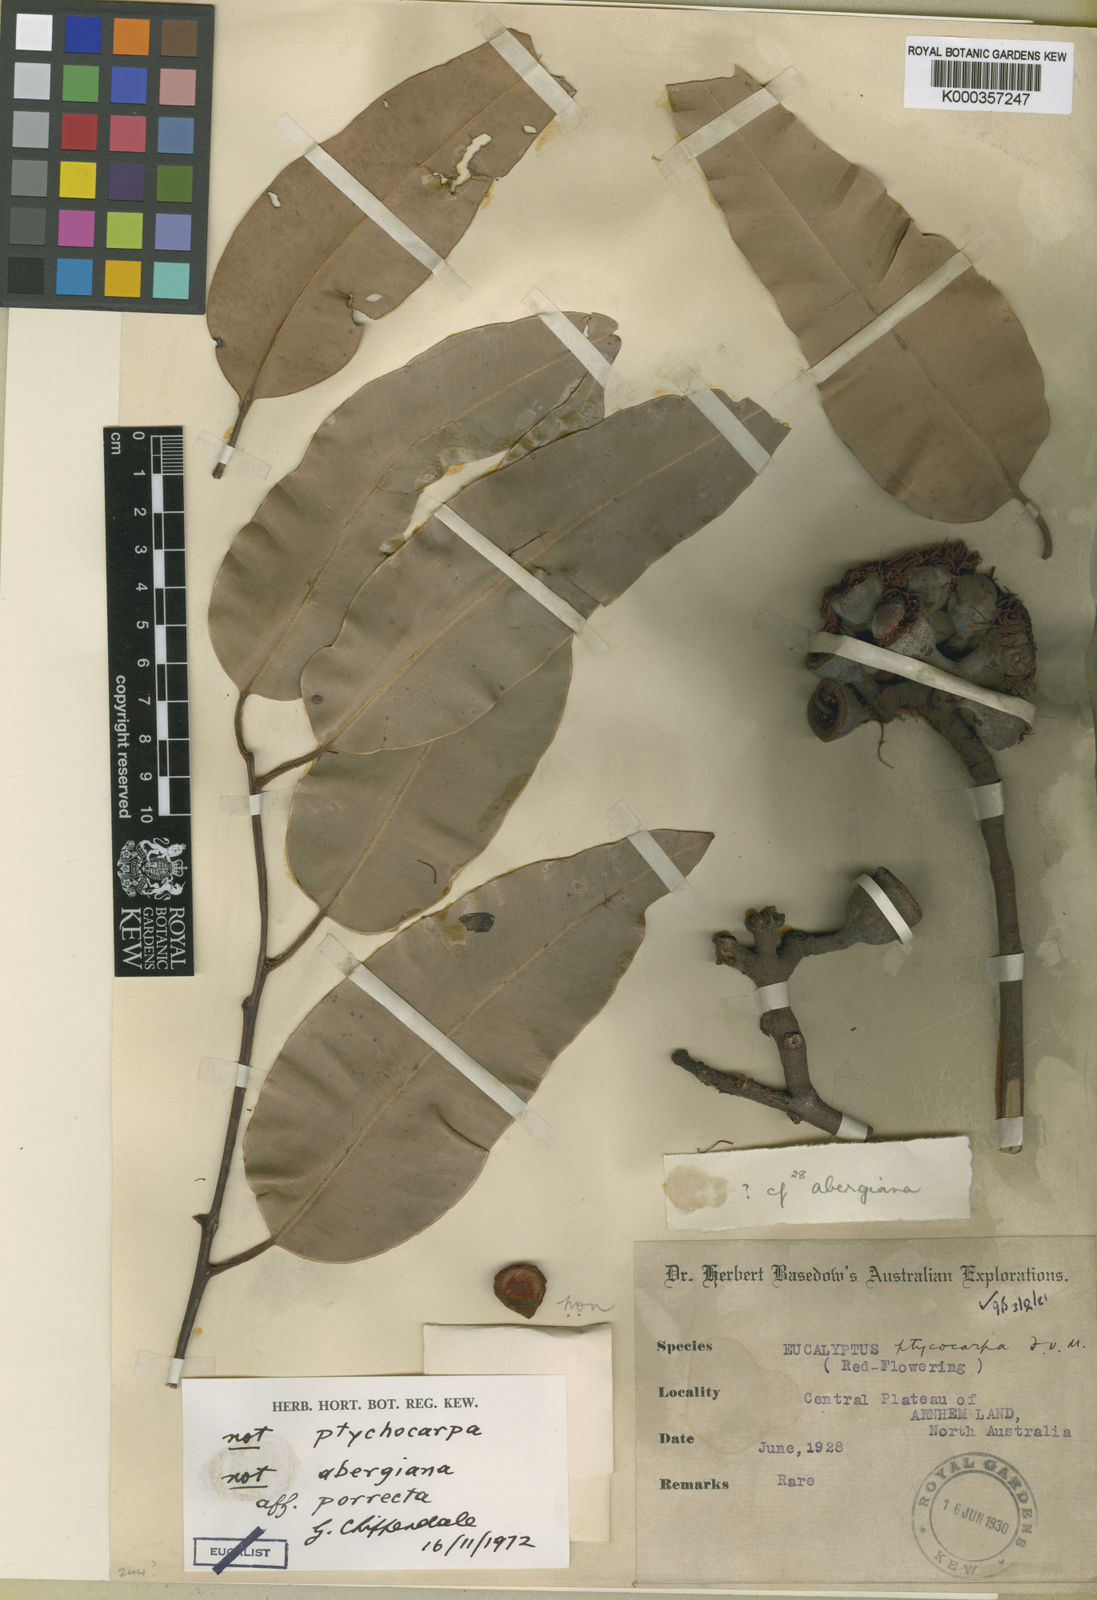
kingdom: Plantae
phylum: Tracheophyta
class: Magnoliopsida
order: Myrtales
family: Myrtaceae
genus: Corymbia
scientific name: Corymbia porrecta
